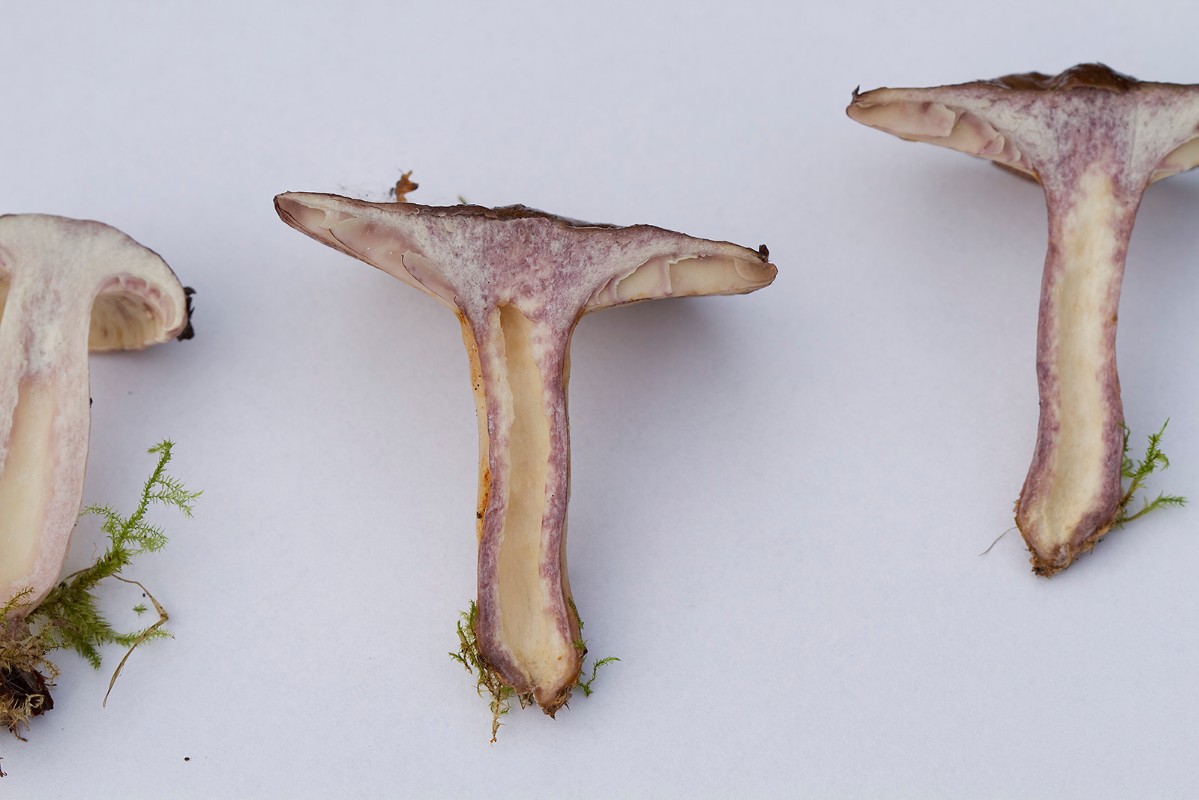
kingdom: Fungi
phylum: Basidiomycota
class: Agaricomycetes
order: Russulales
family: Russulaceae
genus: Lactarius
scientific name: Lactarius uvidus
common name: violetkødet mælkehat
